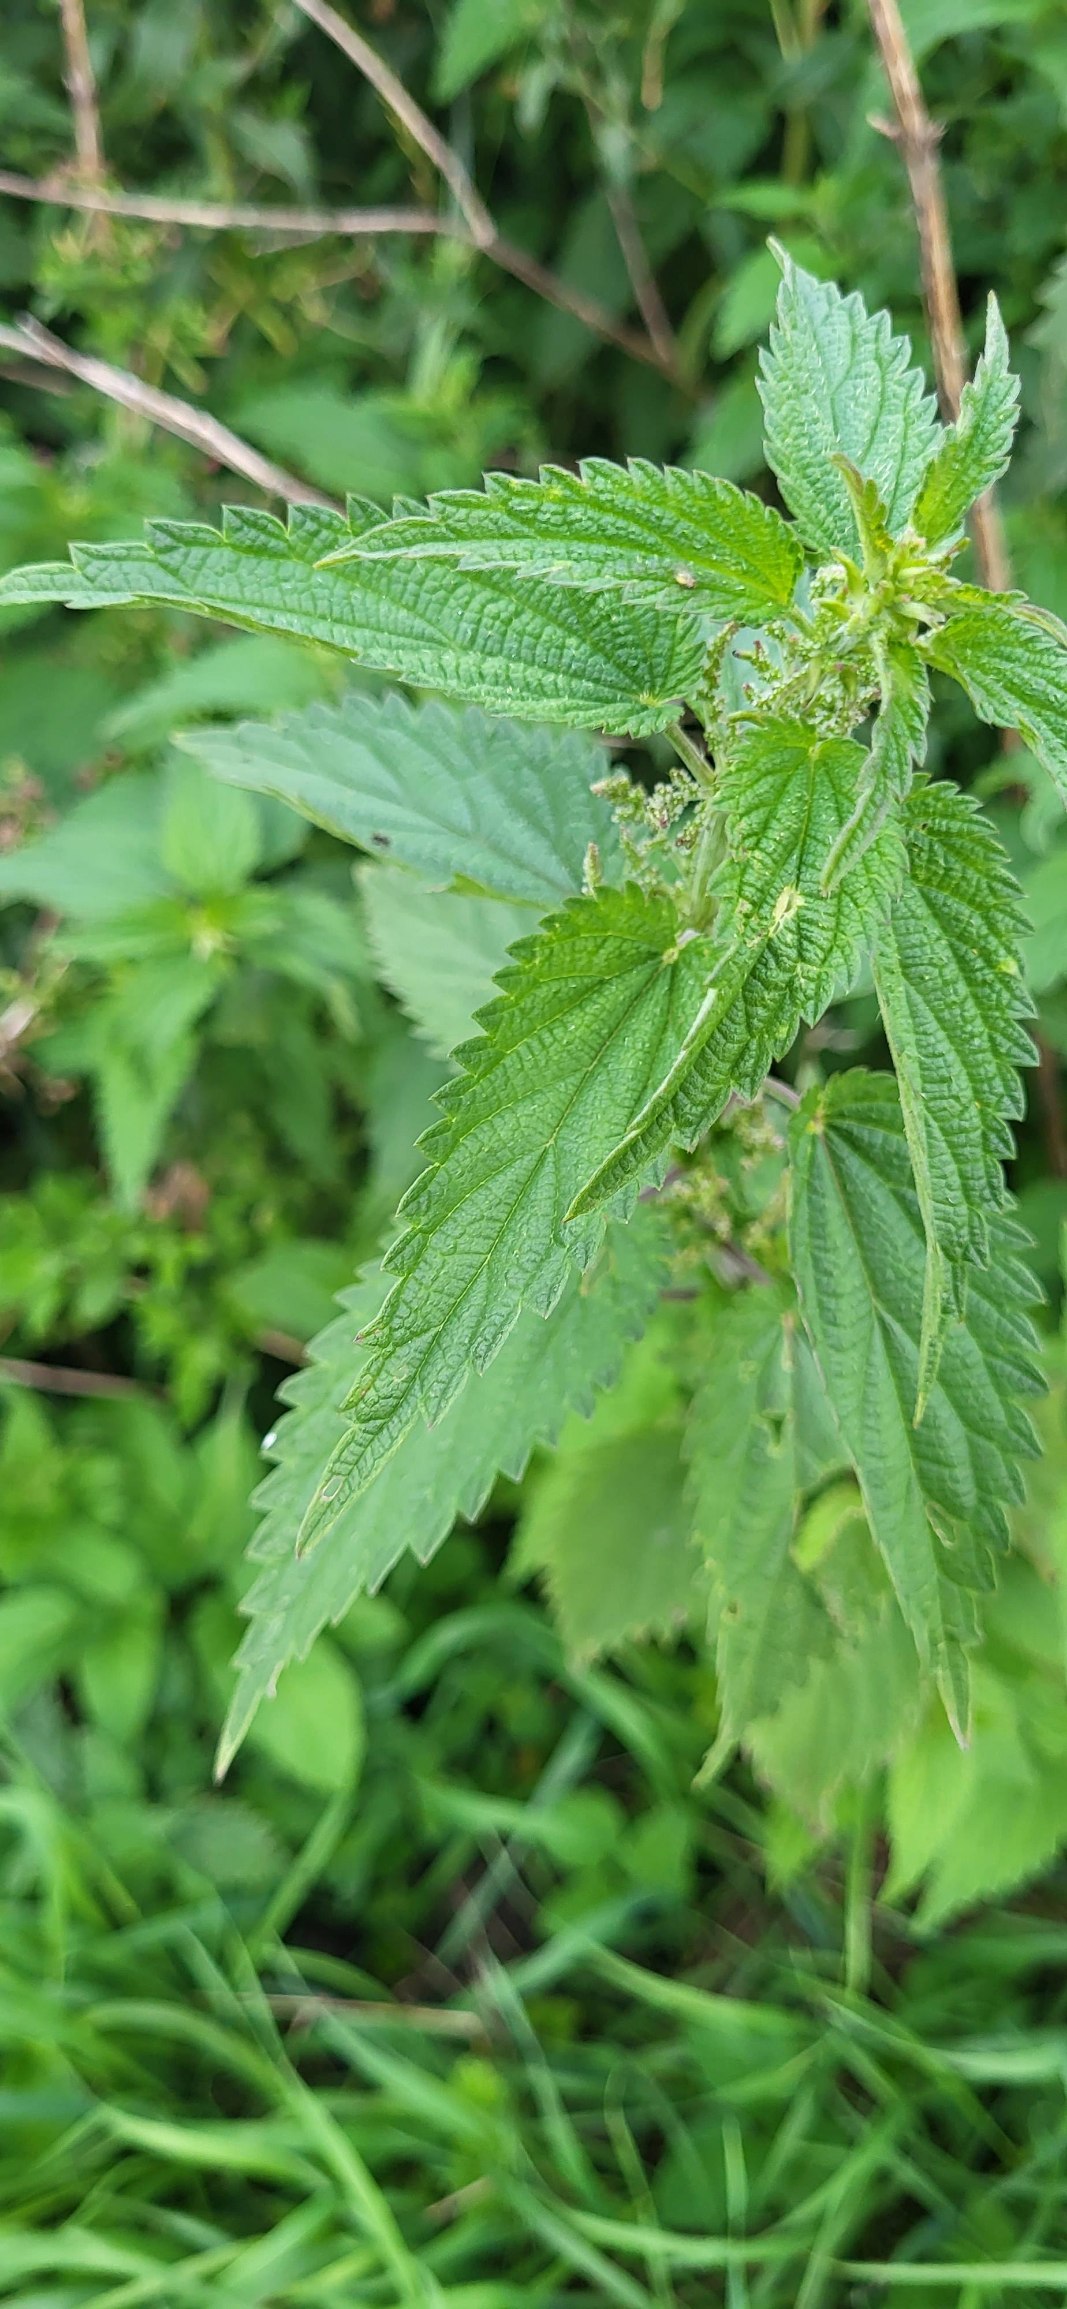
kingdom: Plantae
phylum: Tracheophyta
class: Magnoliopsida
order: Rosales
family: Urticaceae
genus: Urtica
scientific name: Urtica dioica
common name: Stor nælde
